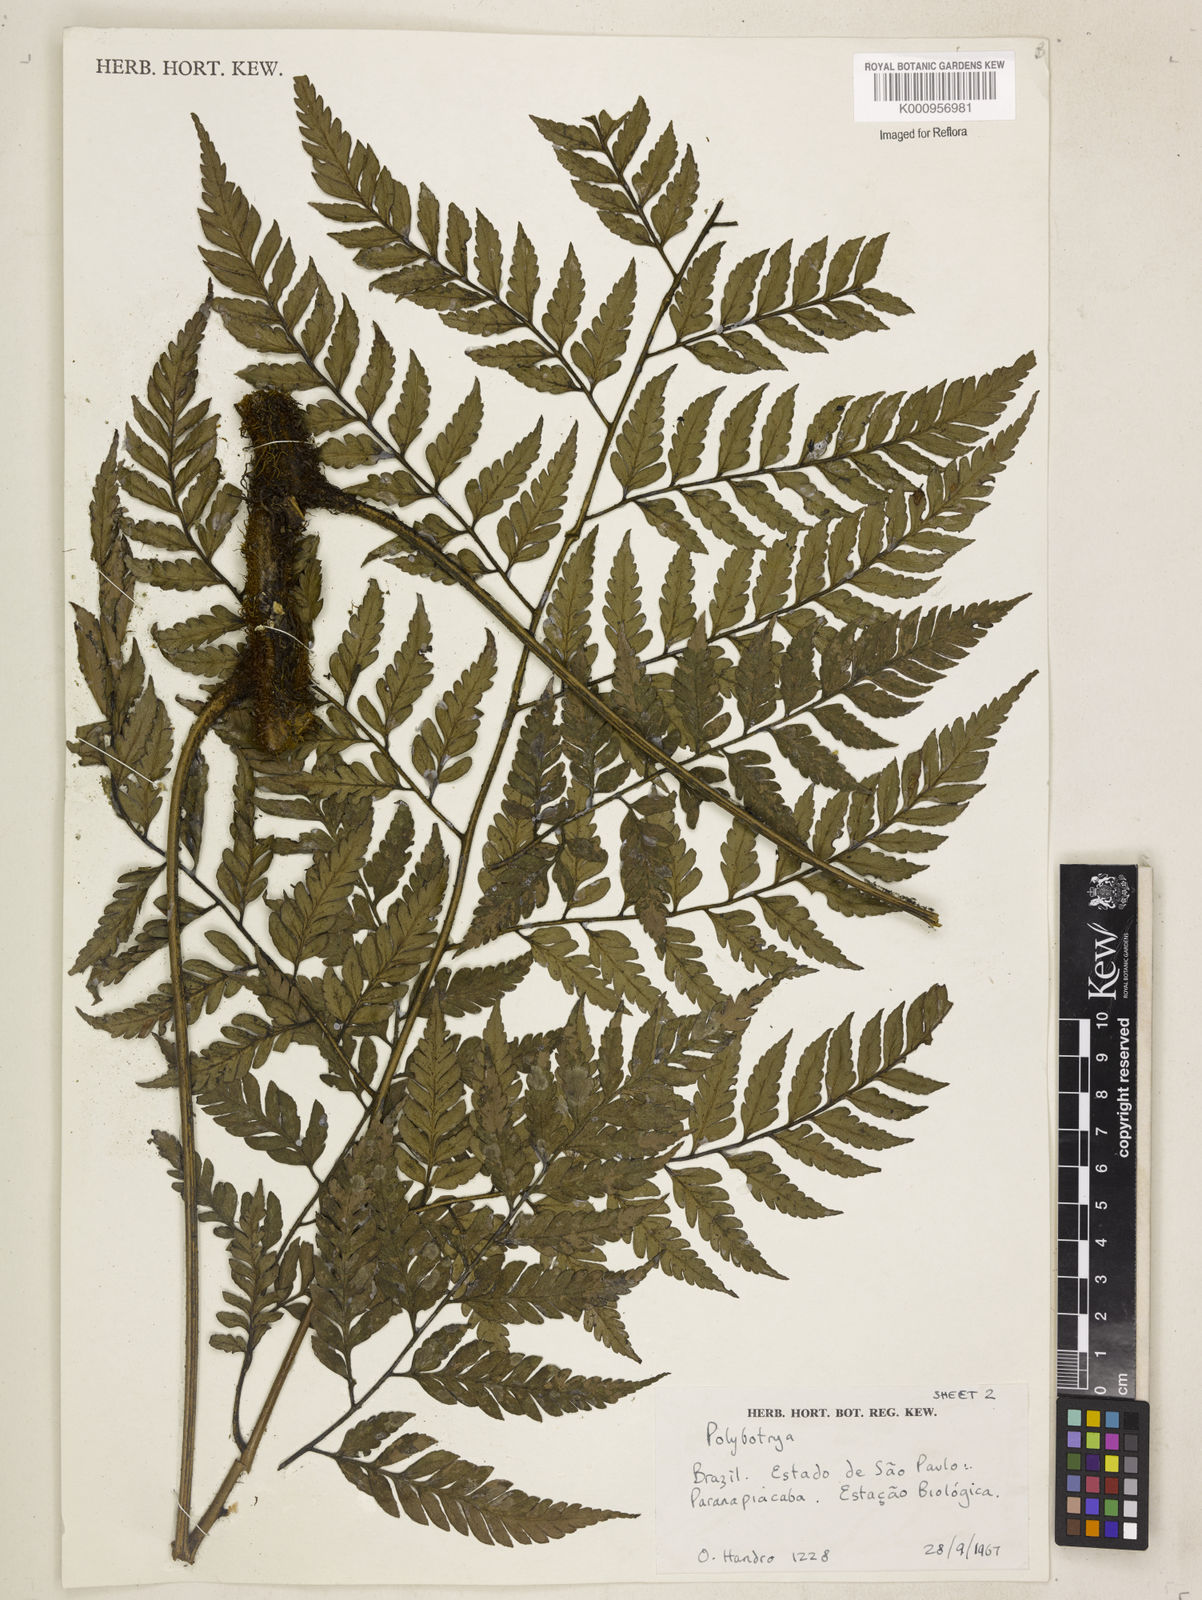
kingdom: Plantae
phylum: Tracheophyta
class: Polypodiopsida
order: Polypodiales
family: Dryopteridaceae
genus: Polybotrya
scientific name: Polybotrya osmundacea
